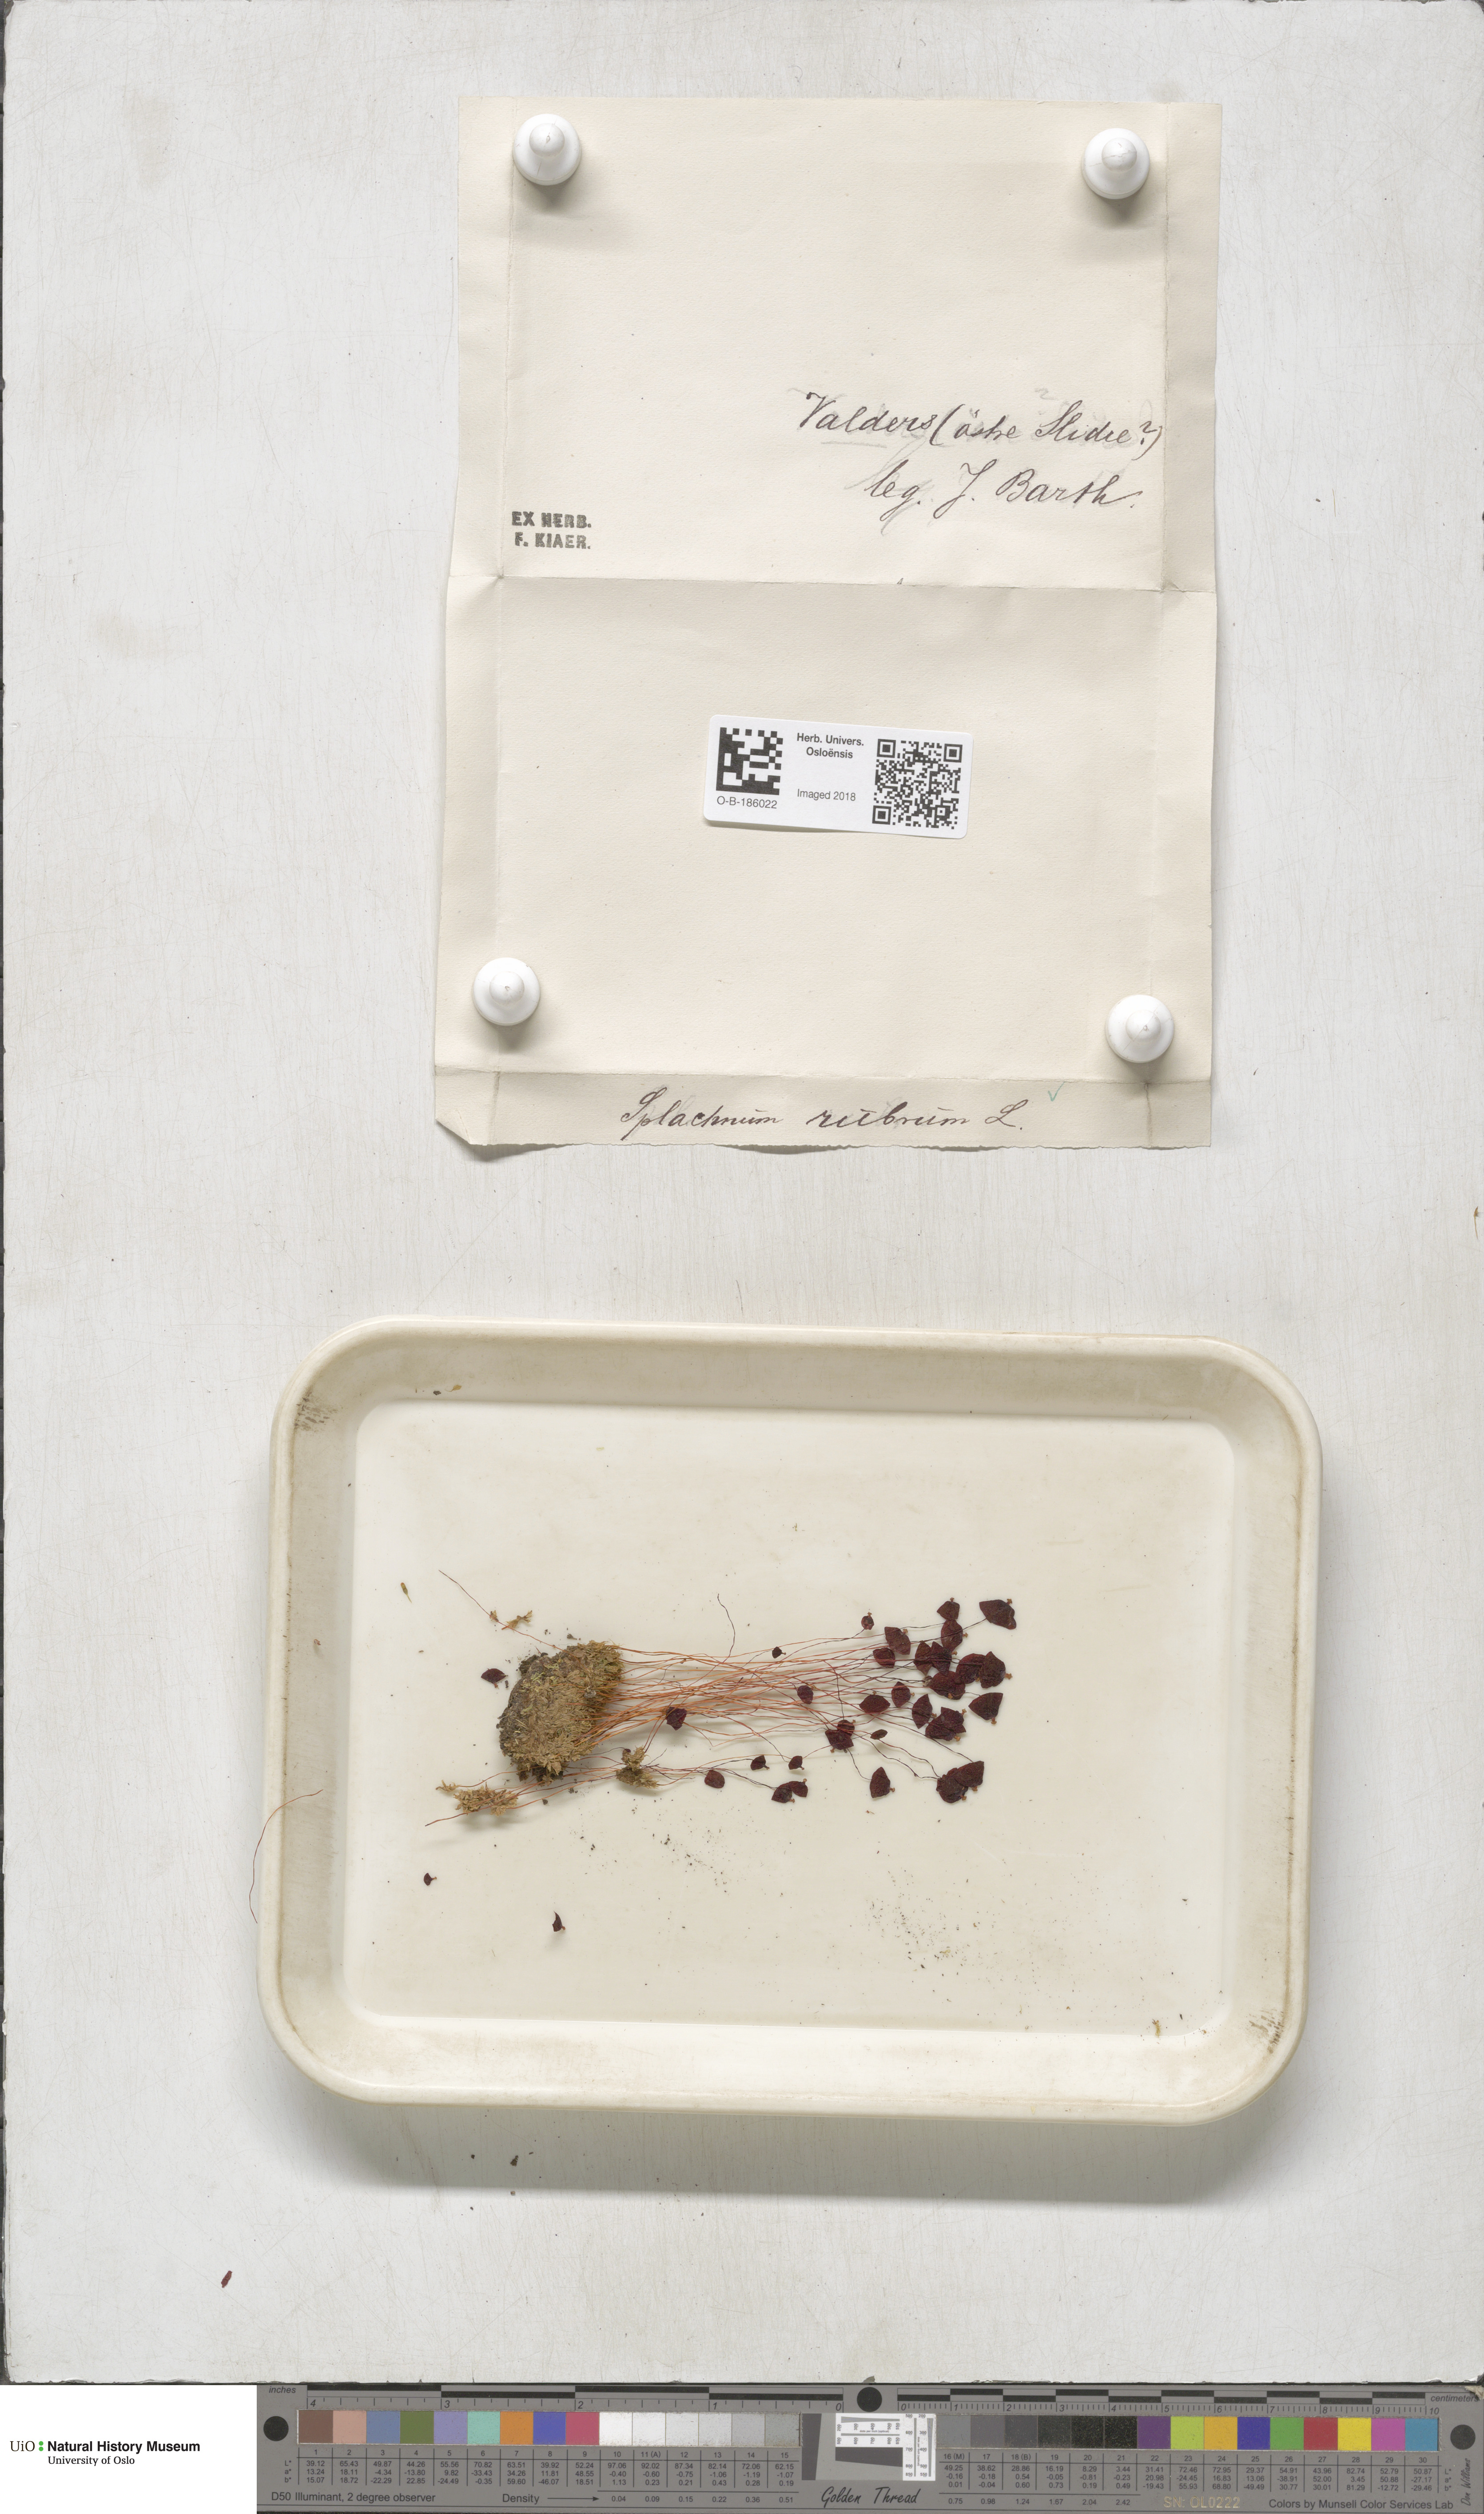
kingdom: Plantae
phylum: Bryophyta
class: Bryopsida
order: Splachnales
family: Splachnaceae
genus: Splachnum
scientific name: Splachnum rubrum
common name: Red dung moss
